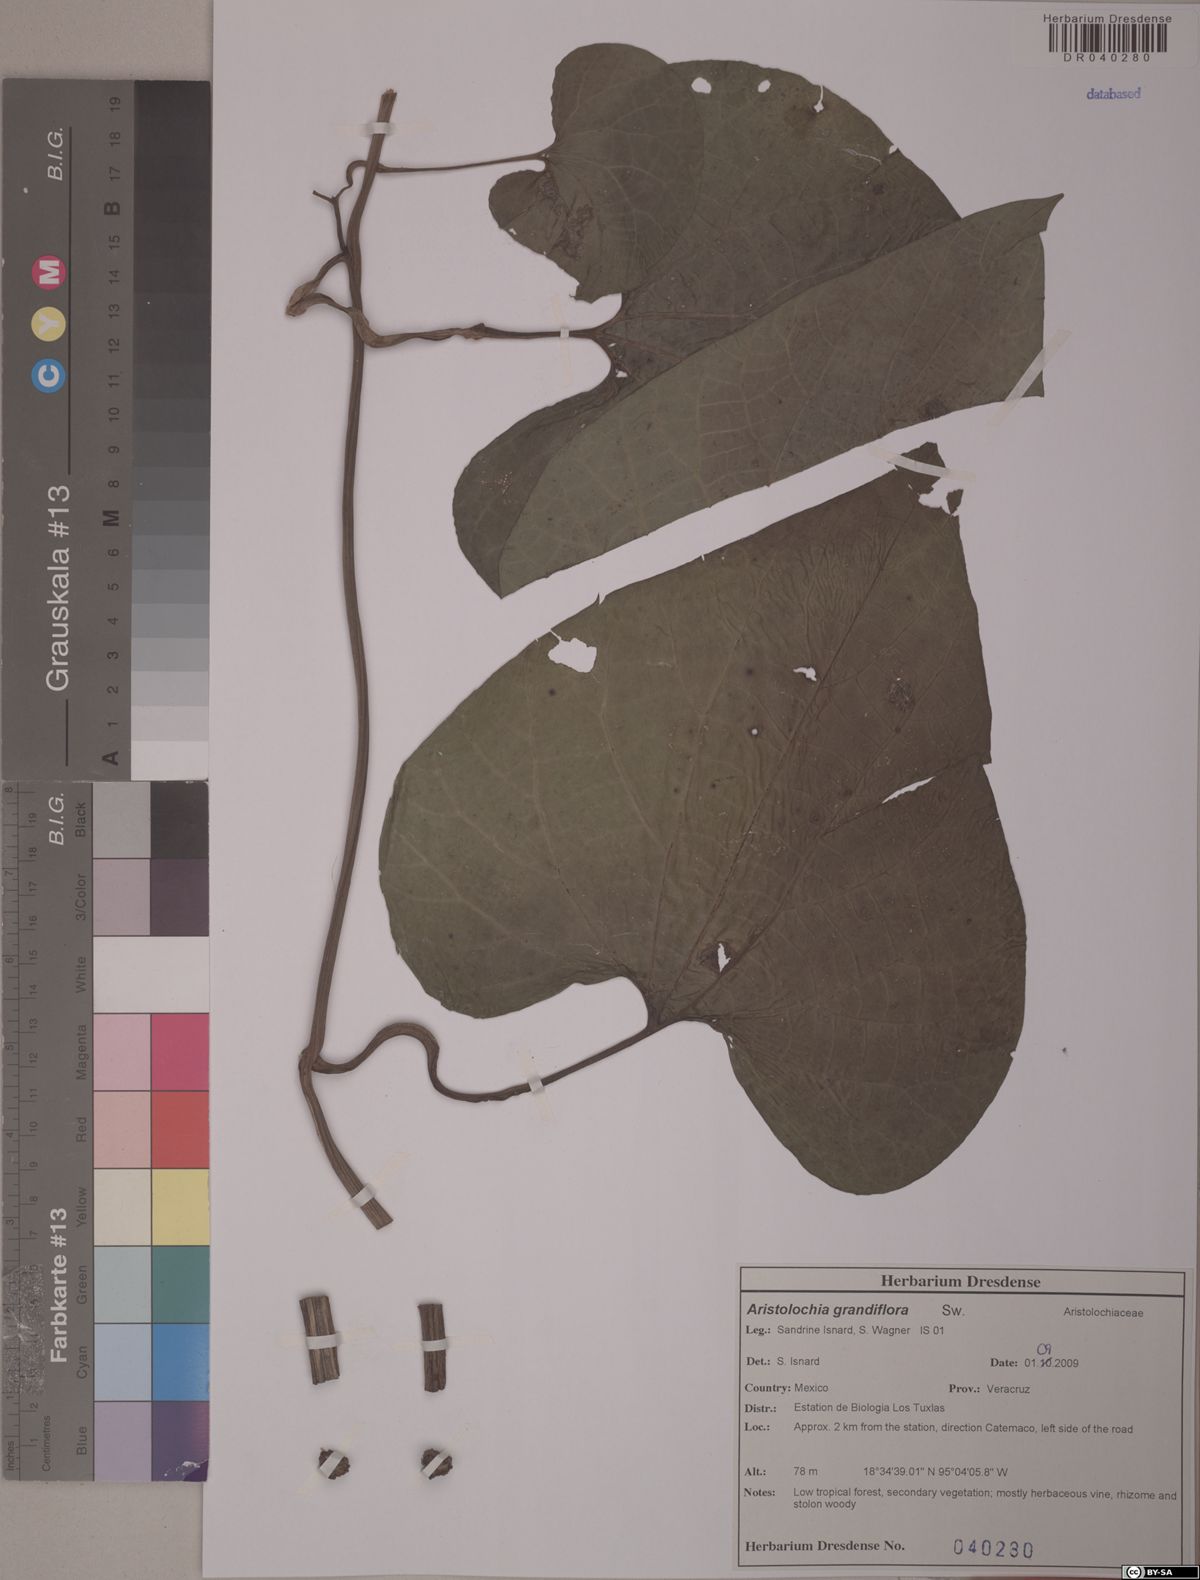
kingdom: Plantae
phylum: Tracheophyta
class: Magnoliopsida
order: Piperales
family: Aristolochiaceae
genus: Aristolochia
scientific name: Aristolochia grandiflora
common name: Pelicanflower
